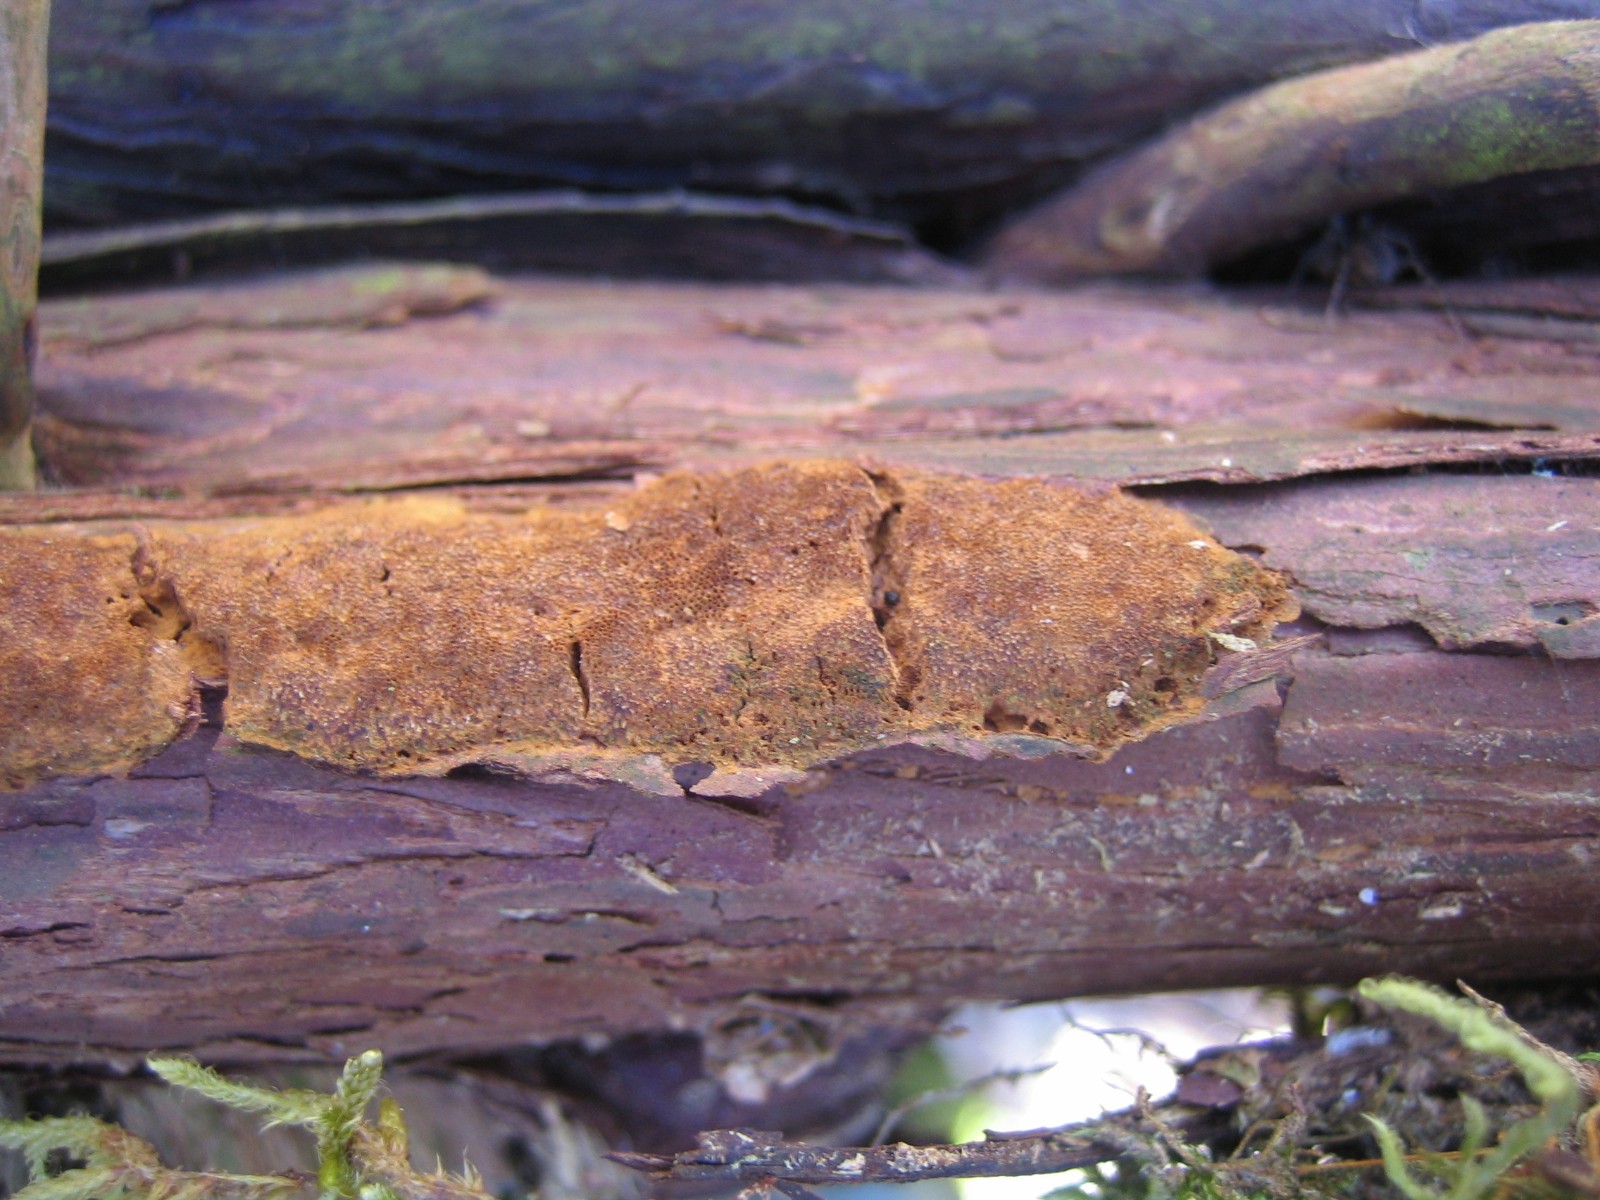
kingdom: Fungi
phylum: Basidiomycota
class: Agaricomycetes
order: Hymenochaetales
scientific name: Hymenochaetales
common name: børstesvampordenen
